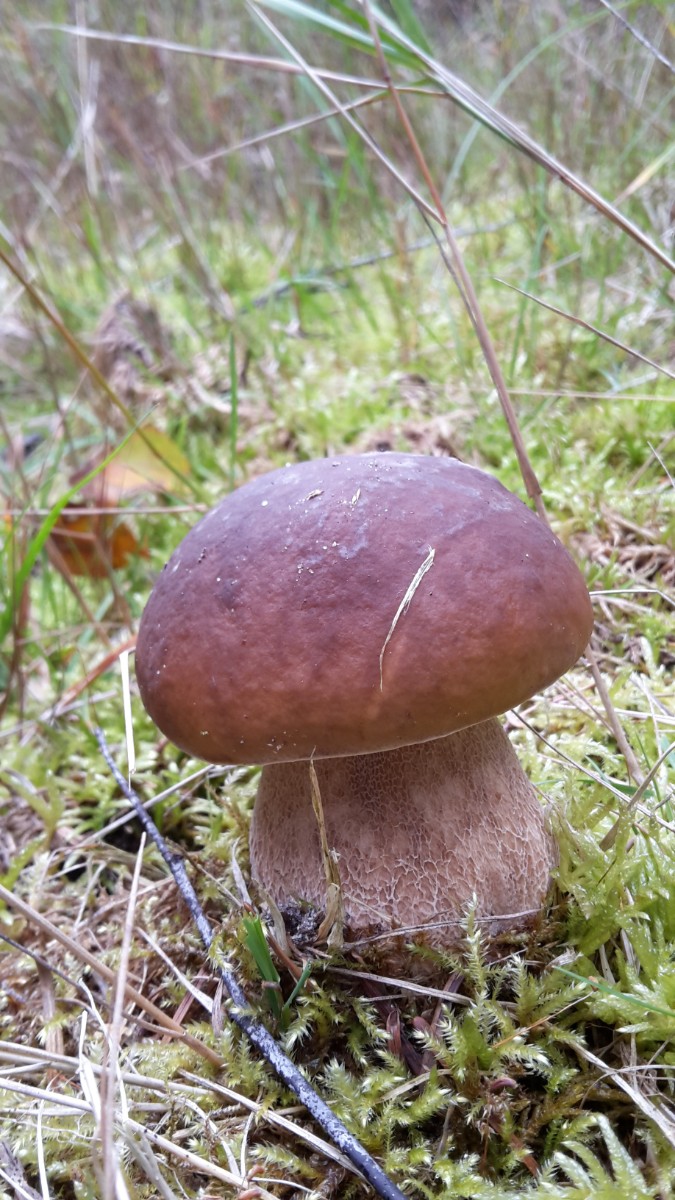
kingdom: Fungi
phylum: Basidiomycota
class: Agaricomycetes
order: Boletales
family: Boletaceae
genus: Boletus
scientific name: Boletus edulis
